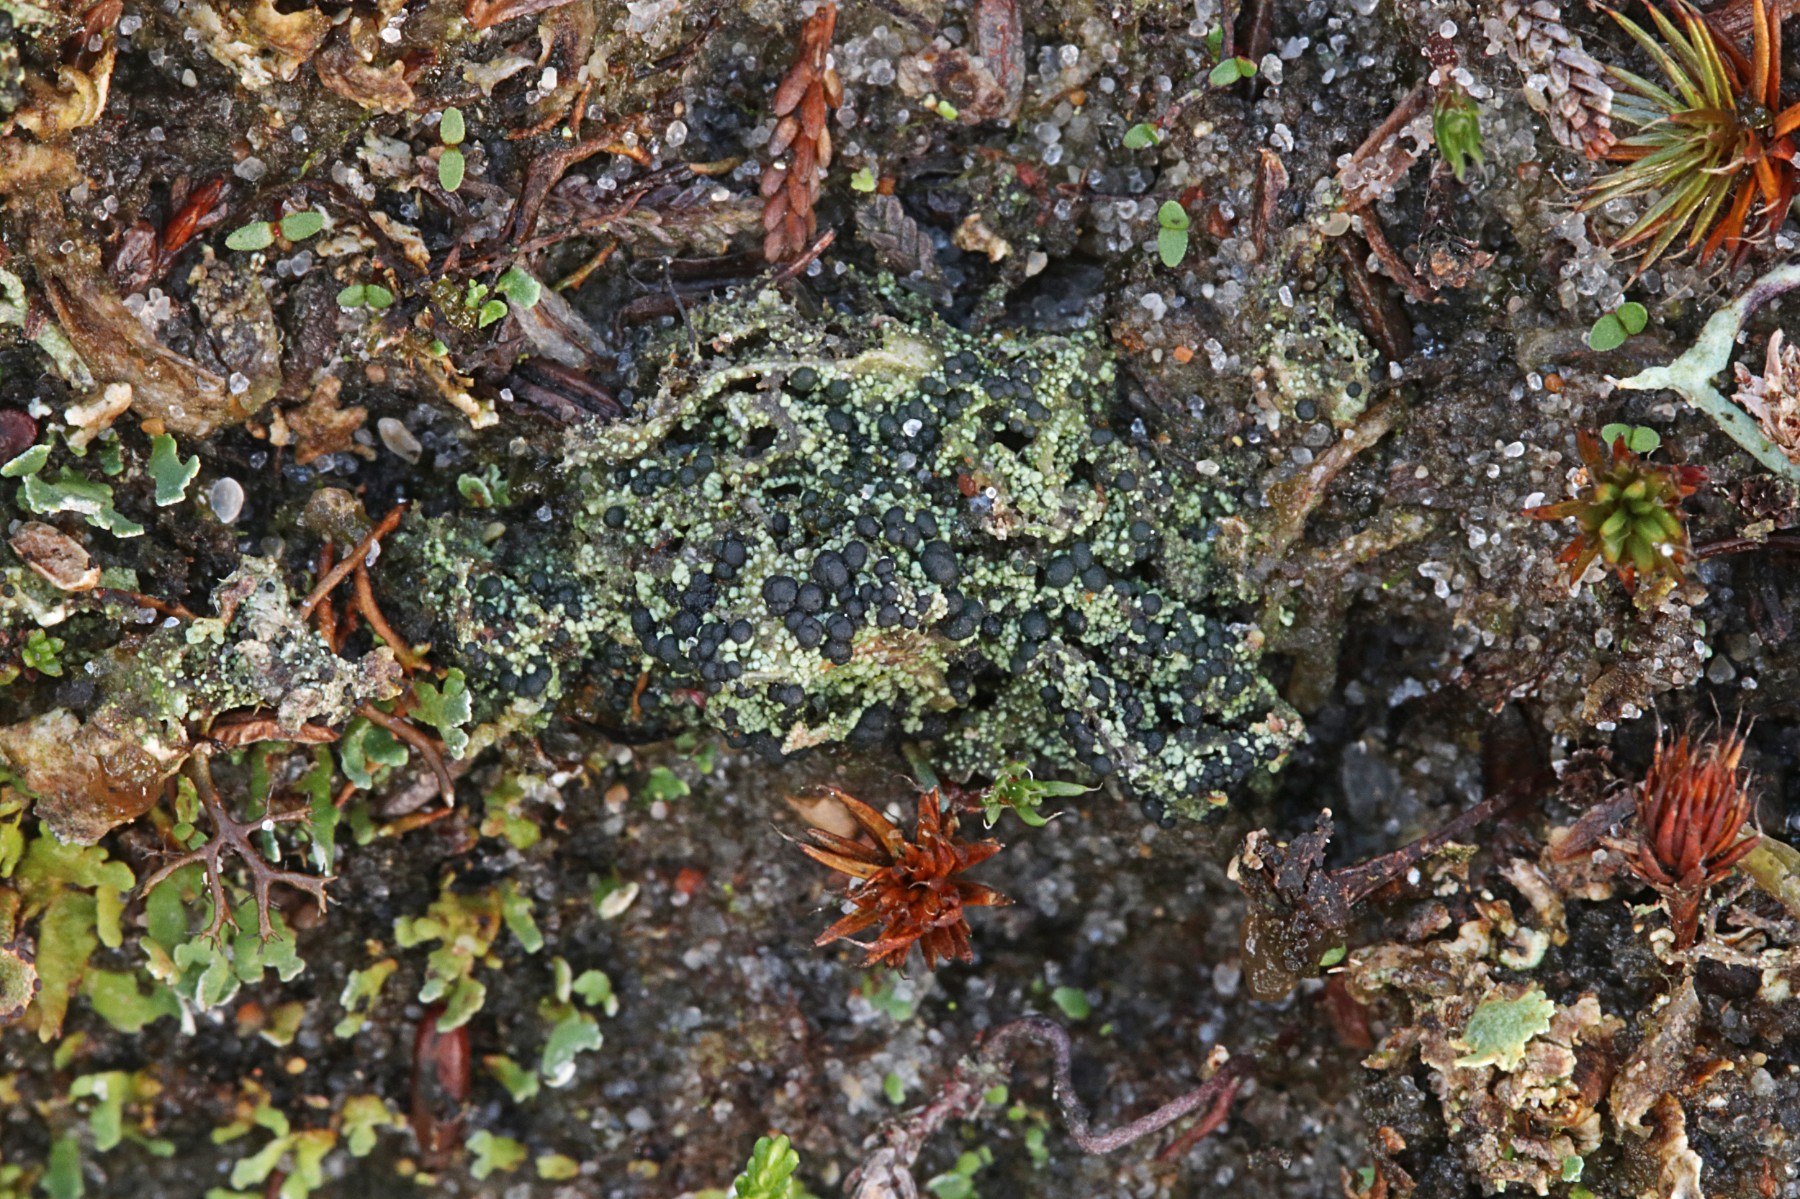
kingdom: Fungi
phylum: Ascomycota
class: Lecanoromycetes
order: Lecanorales
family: Byssolomataceae
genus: Micarea
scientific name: Micarea lignaria
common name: tørve-knaplav
